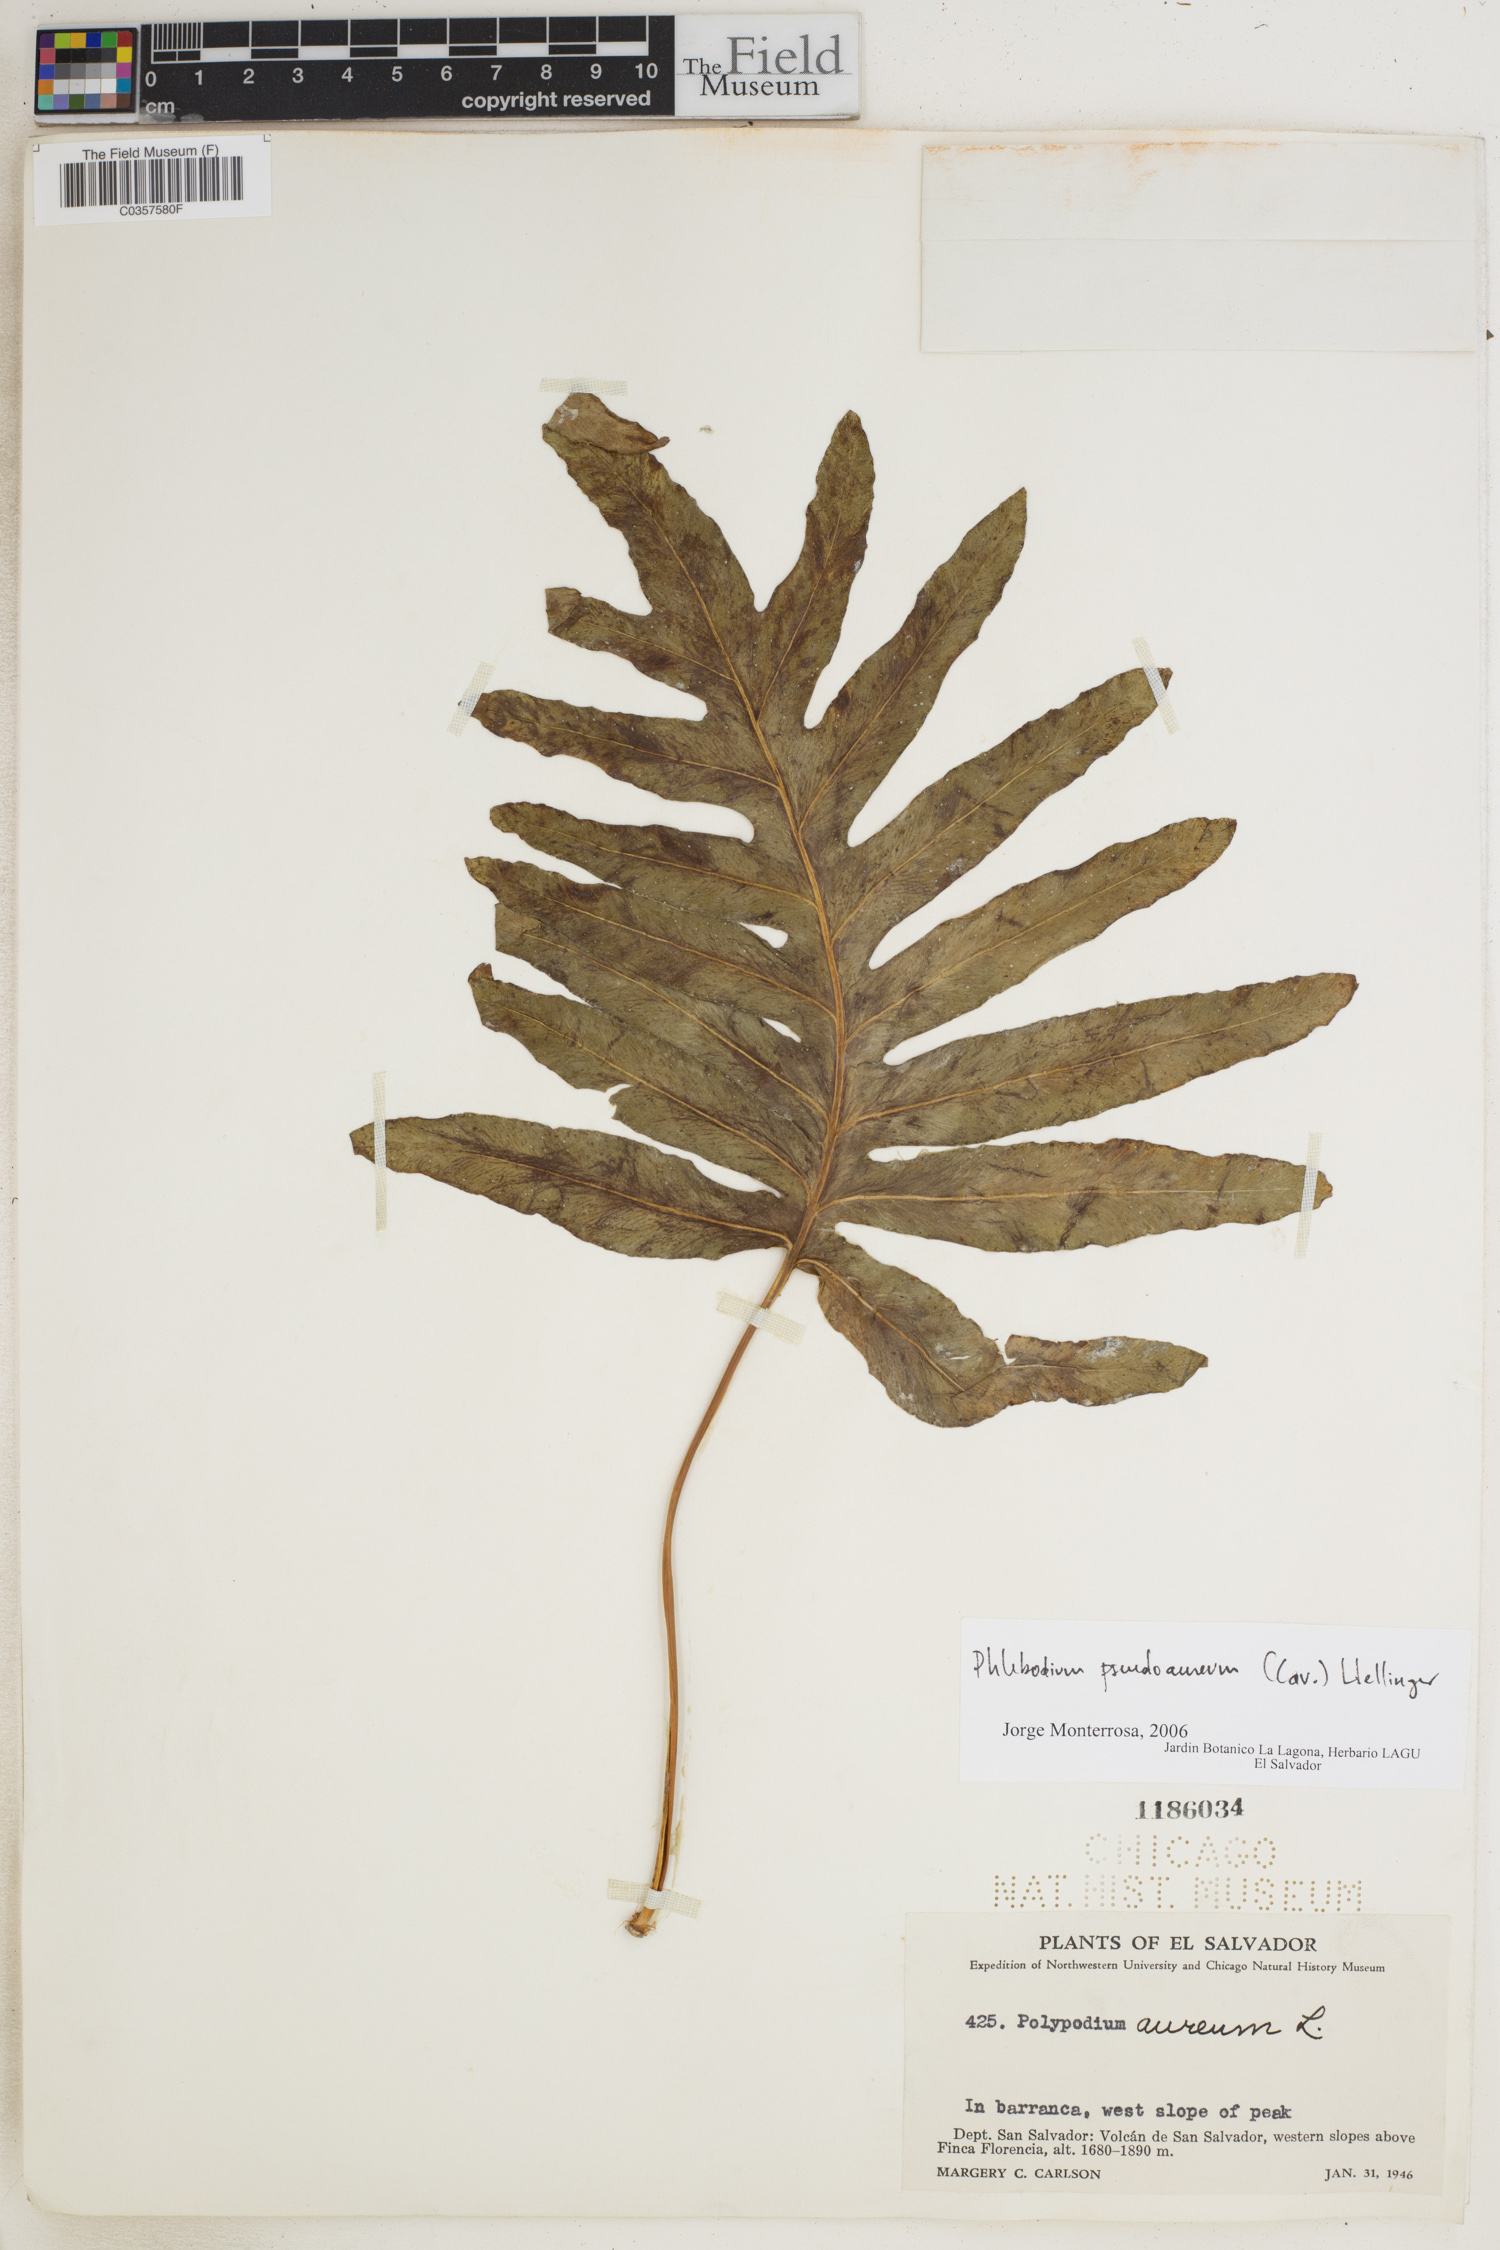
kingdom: Plantae
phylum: Tracheophyta
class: Polypodiopsida
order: Polypodiales
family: Polypodiaceae
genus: Phlebodium
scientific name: Phlebodium pseudoaureum
